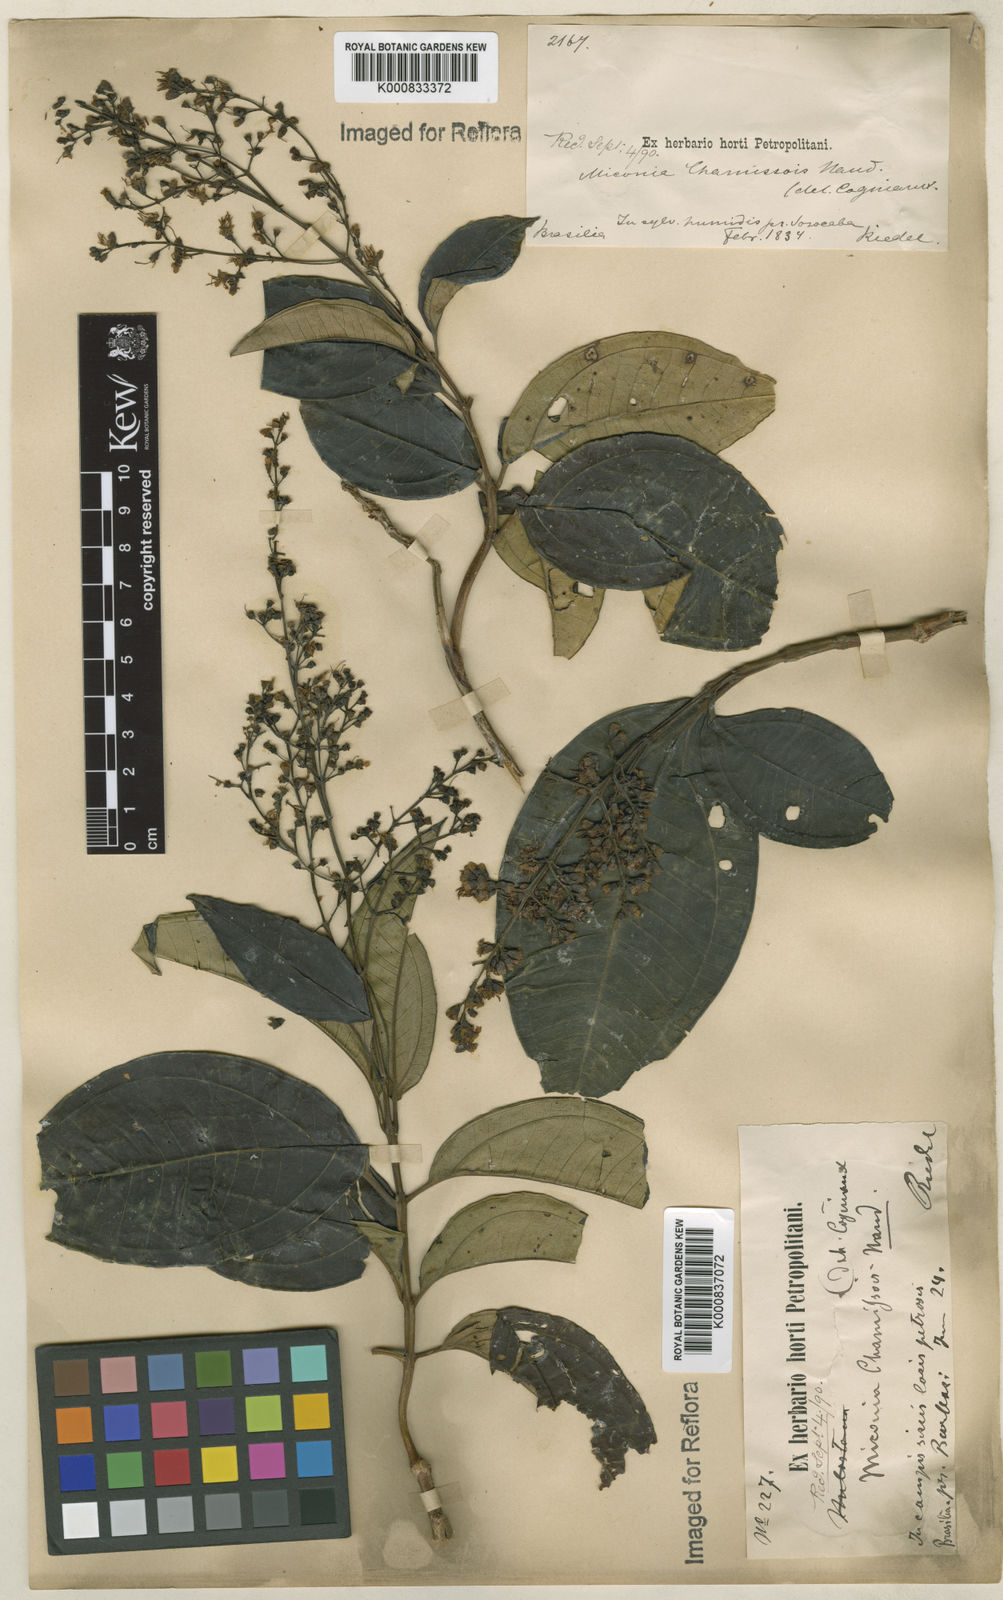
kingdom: Plantae
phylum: Tracheophyta
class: Magnoliopsida
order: Myrtales
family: Melastomataceae
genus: Miconia
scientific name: Miconia chamissois
